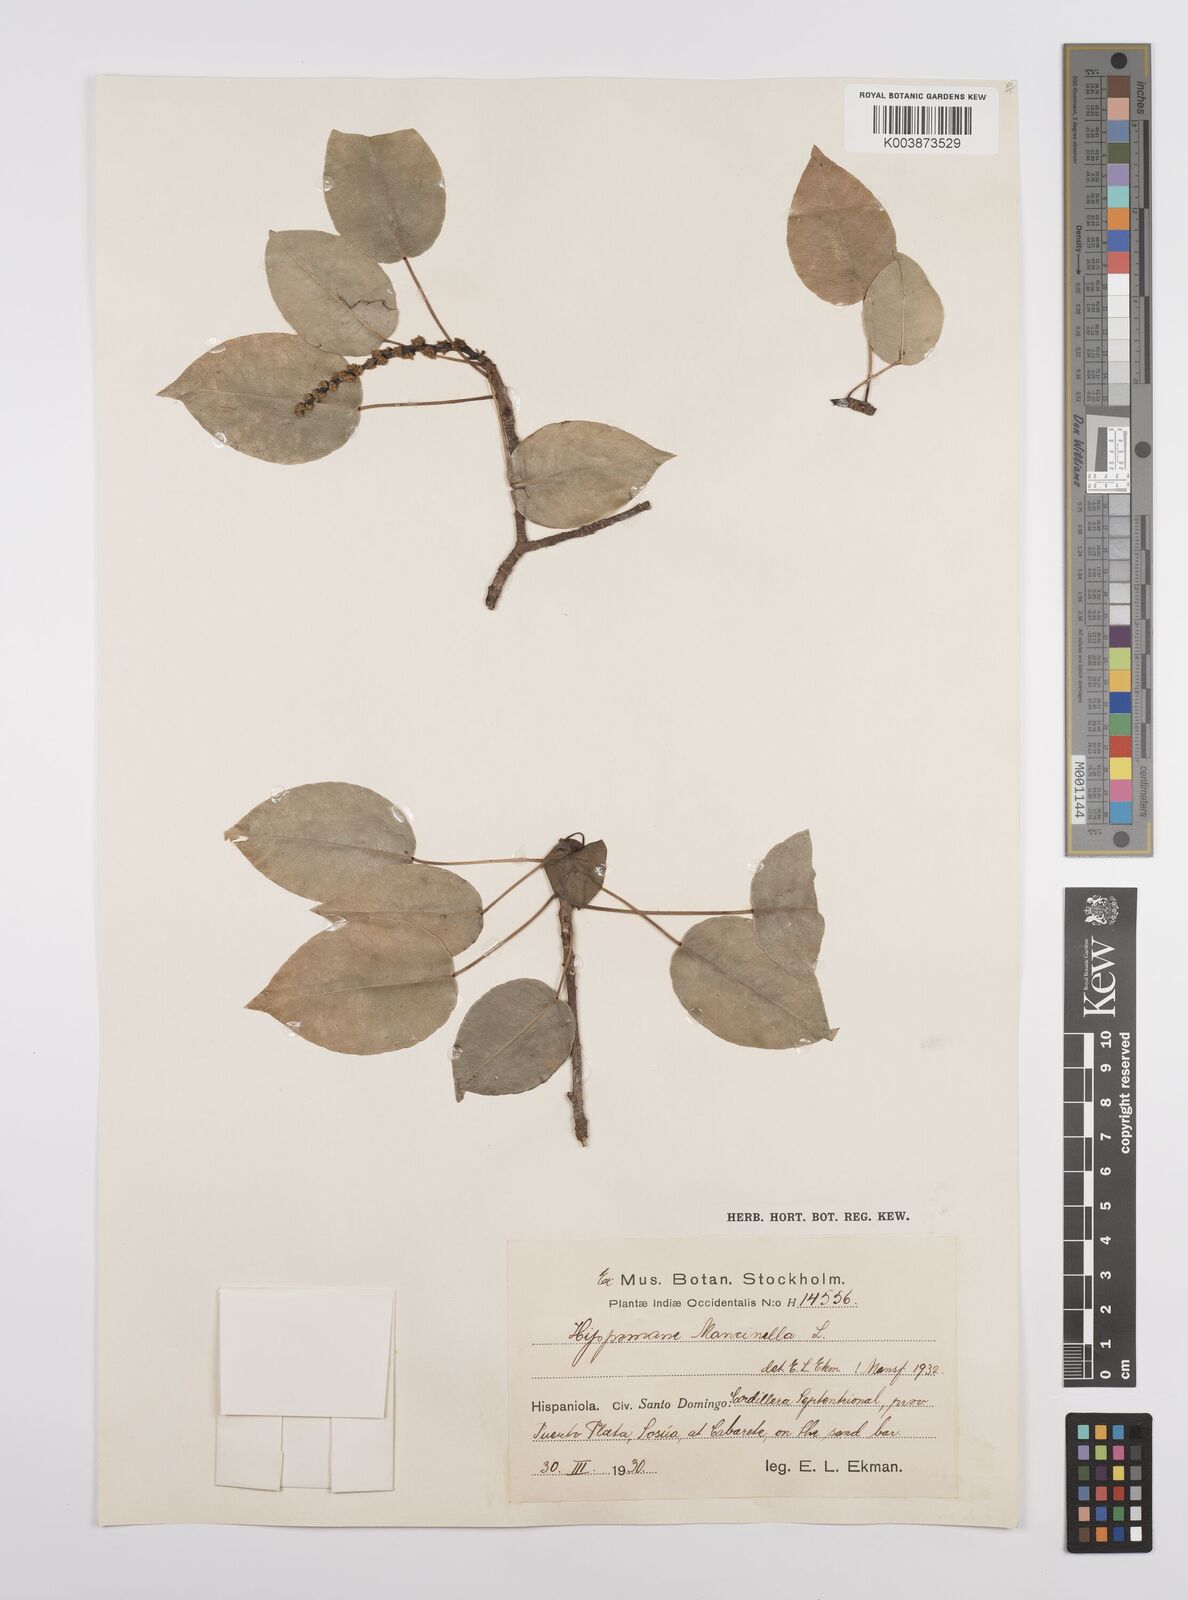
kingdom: Plantae
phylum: Tracheophyta
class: Magnoliopsida
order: Malpighiales
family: Euphorbiaceae
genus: Hippomane
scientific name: Hippomane mancinella
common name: Manchineel
